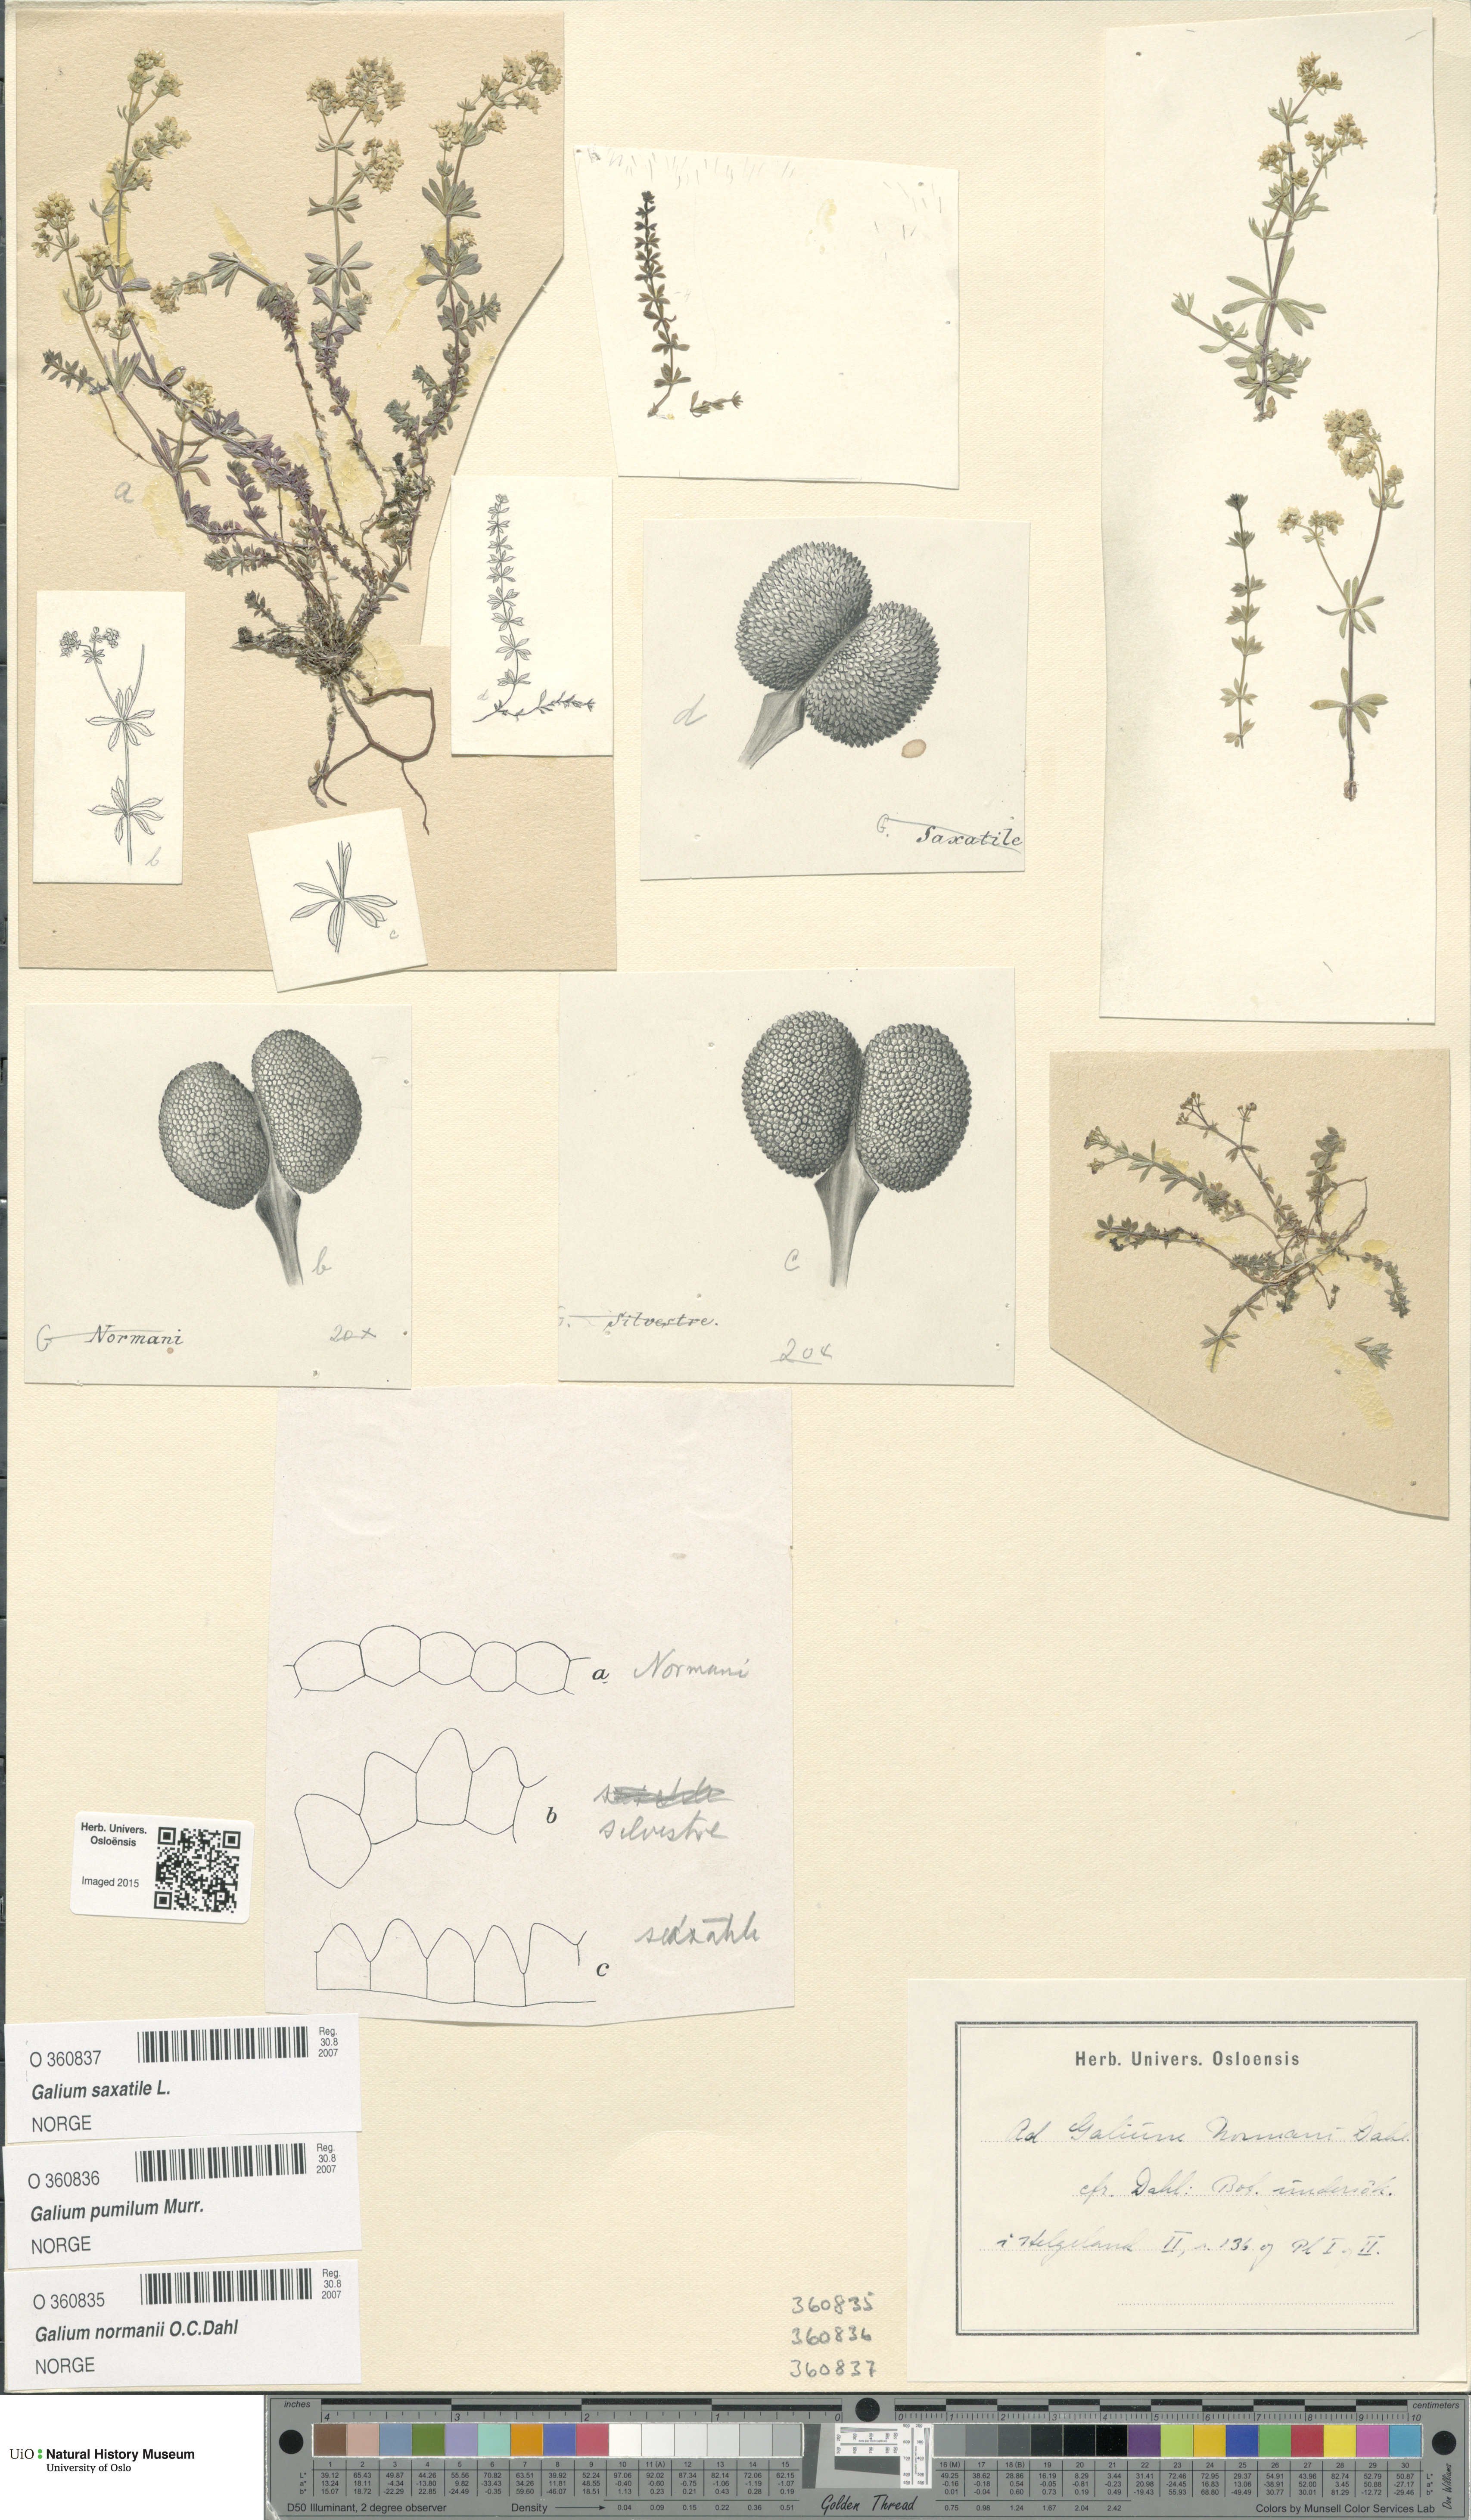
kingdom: Plantae
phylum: Tracheophyta
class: Magnoliopsida
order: Gentianales
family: Rubiaceae
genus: Galium
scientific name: Galium saxatile
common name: Heath bedstraw
